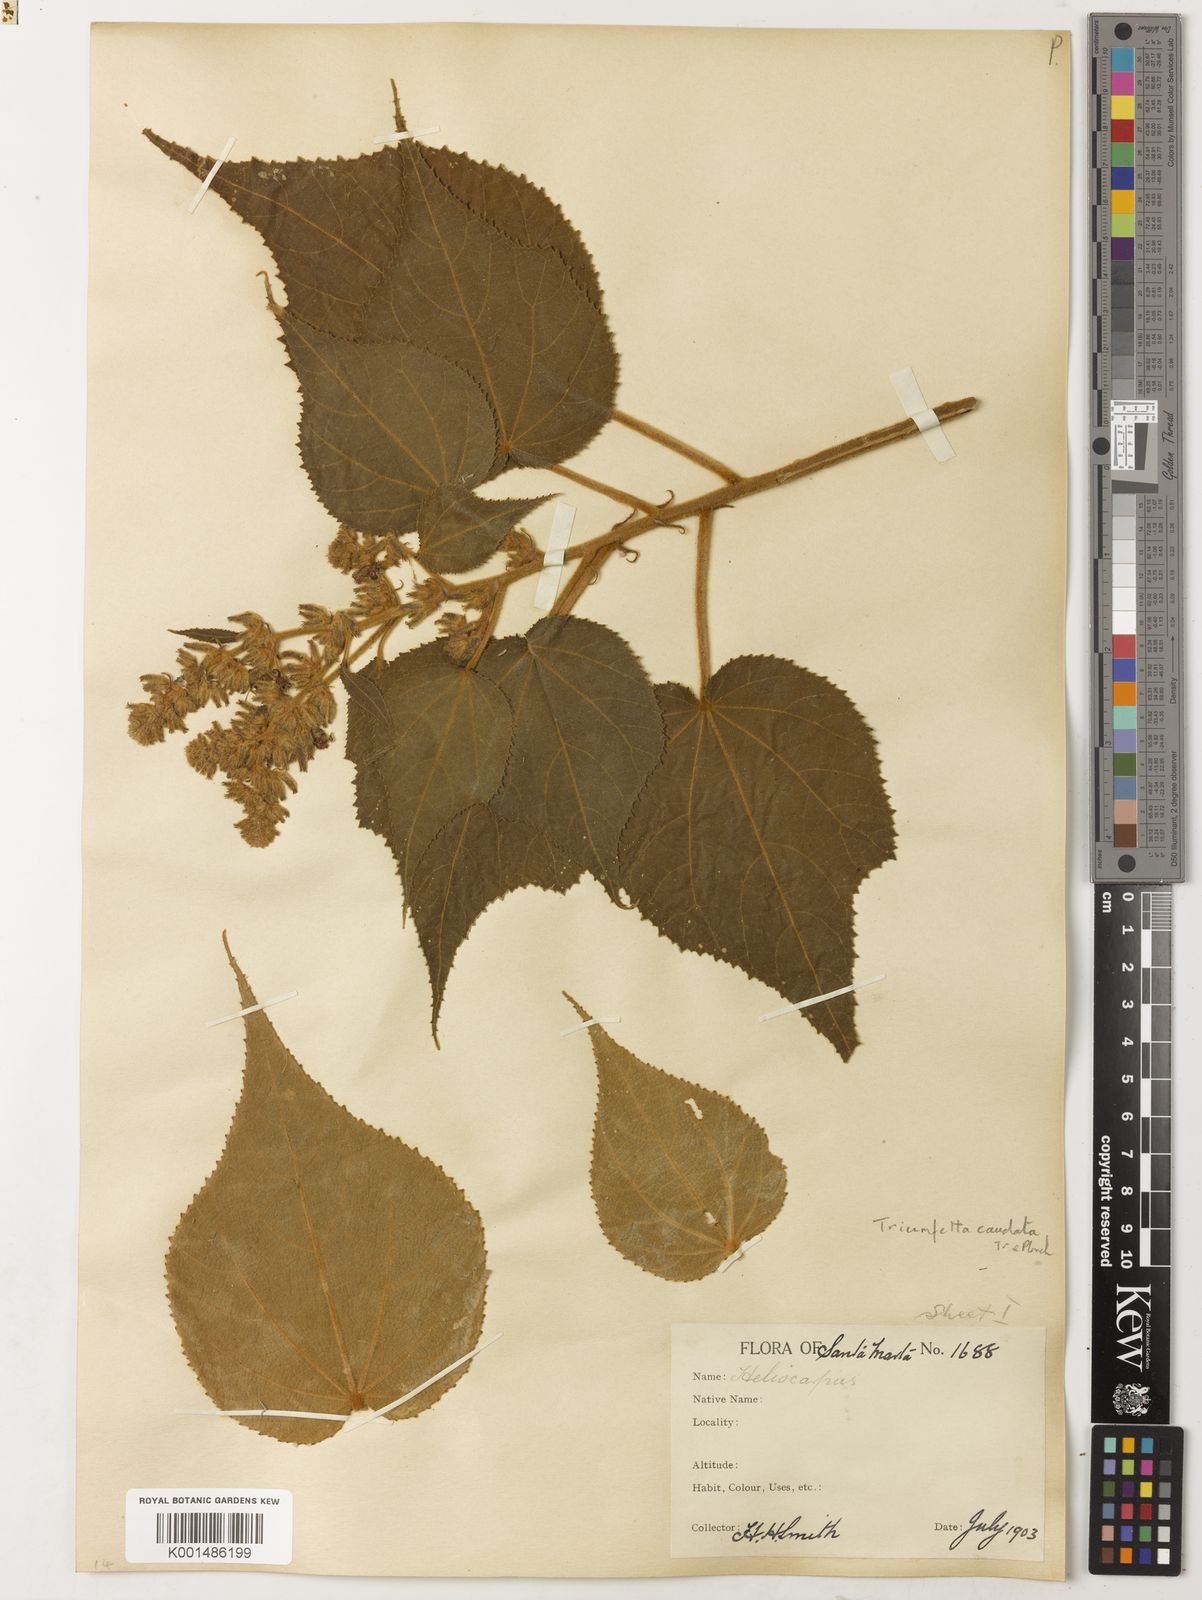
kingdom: Plantae
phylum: Tracheophyta
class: Magnoliopsida
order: Malvales
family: Malvaceae
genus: Triumfetta
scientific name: Triumfetta caudata
